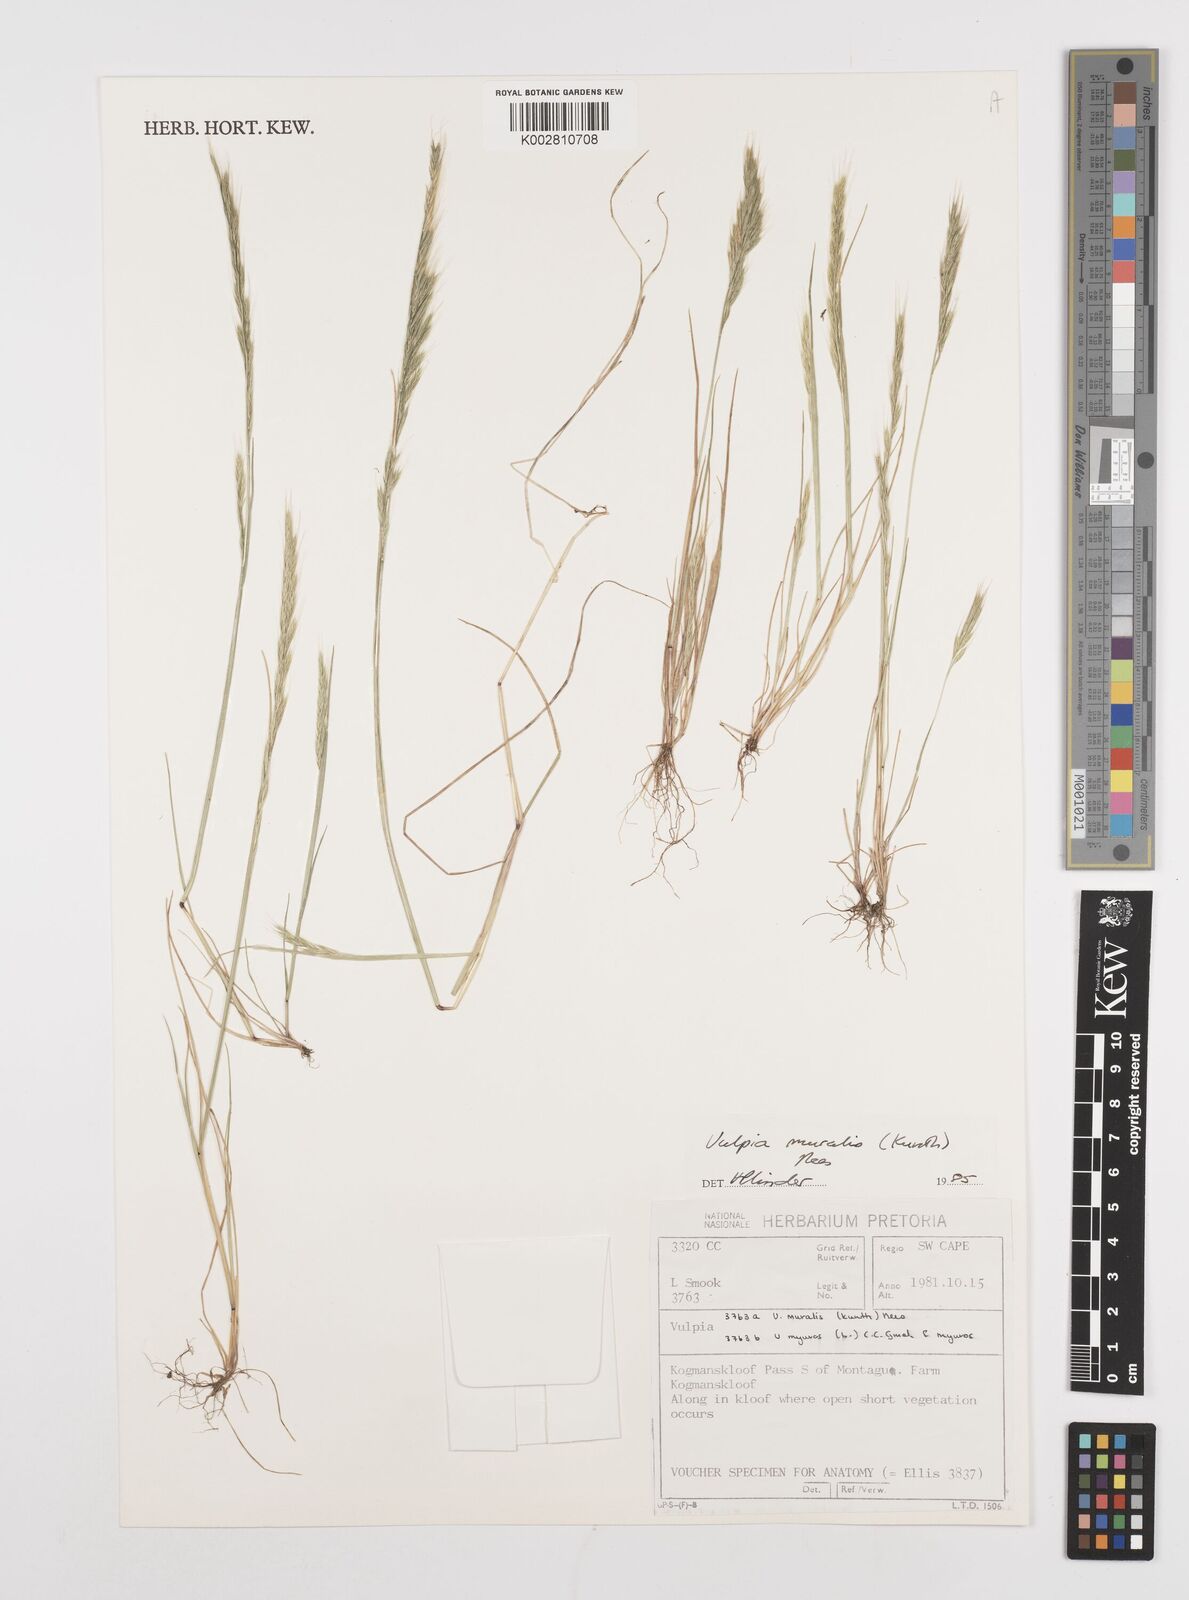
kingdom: Plantae
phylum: Tracheophyta
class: Liliopsida
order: Poales
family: Poaceae
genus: Festuca
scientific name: Festuca muralis
